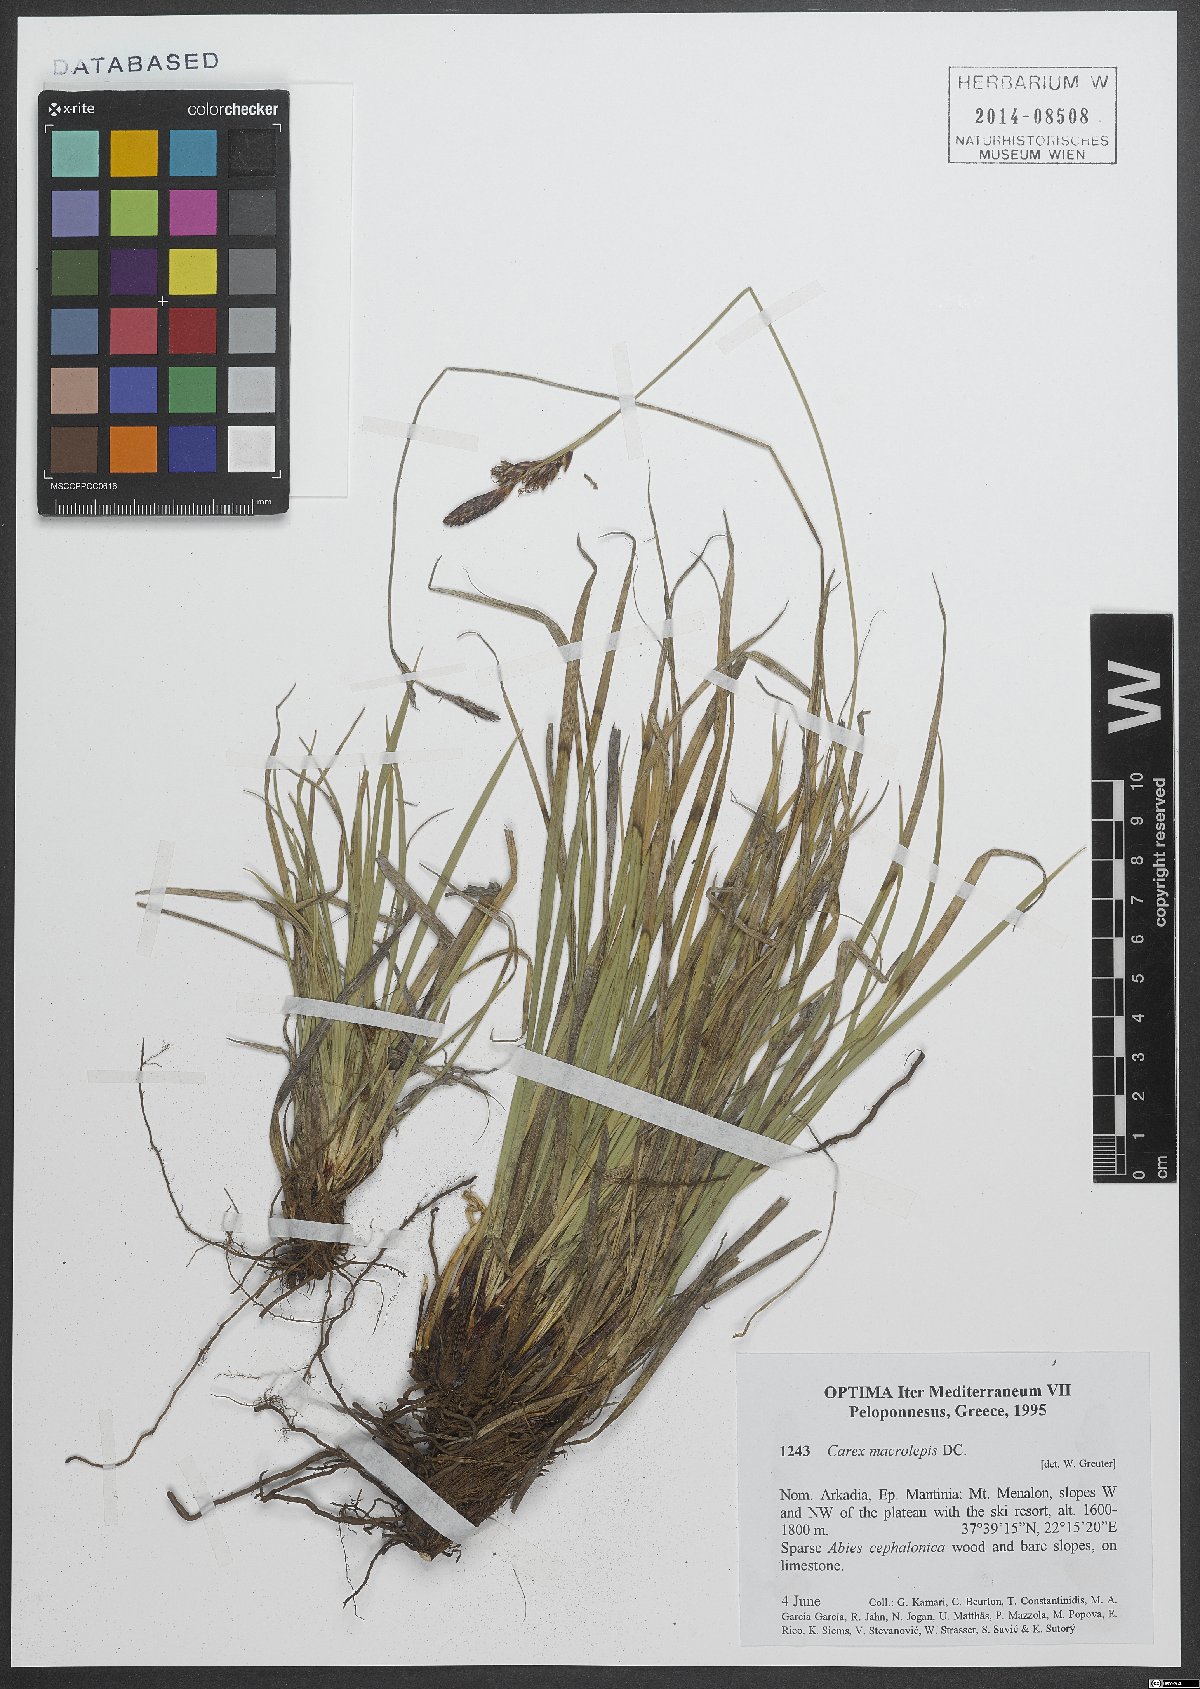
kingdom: Plantae
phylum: Tracheophyta
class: Liliopsida
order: Poales
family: Cyperaceae
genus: Carex
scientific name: Carex macrolepis
